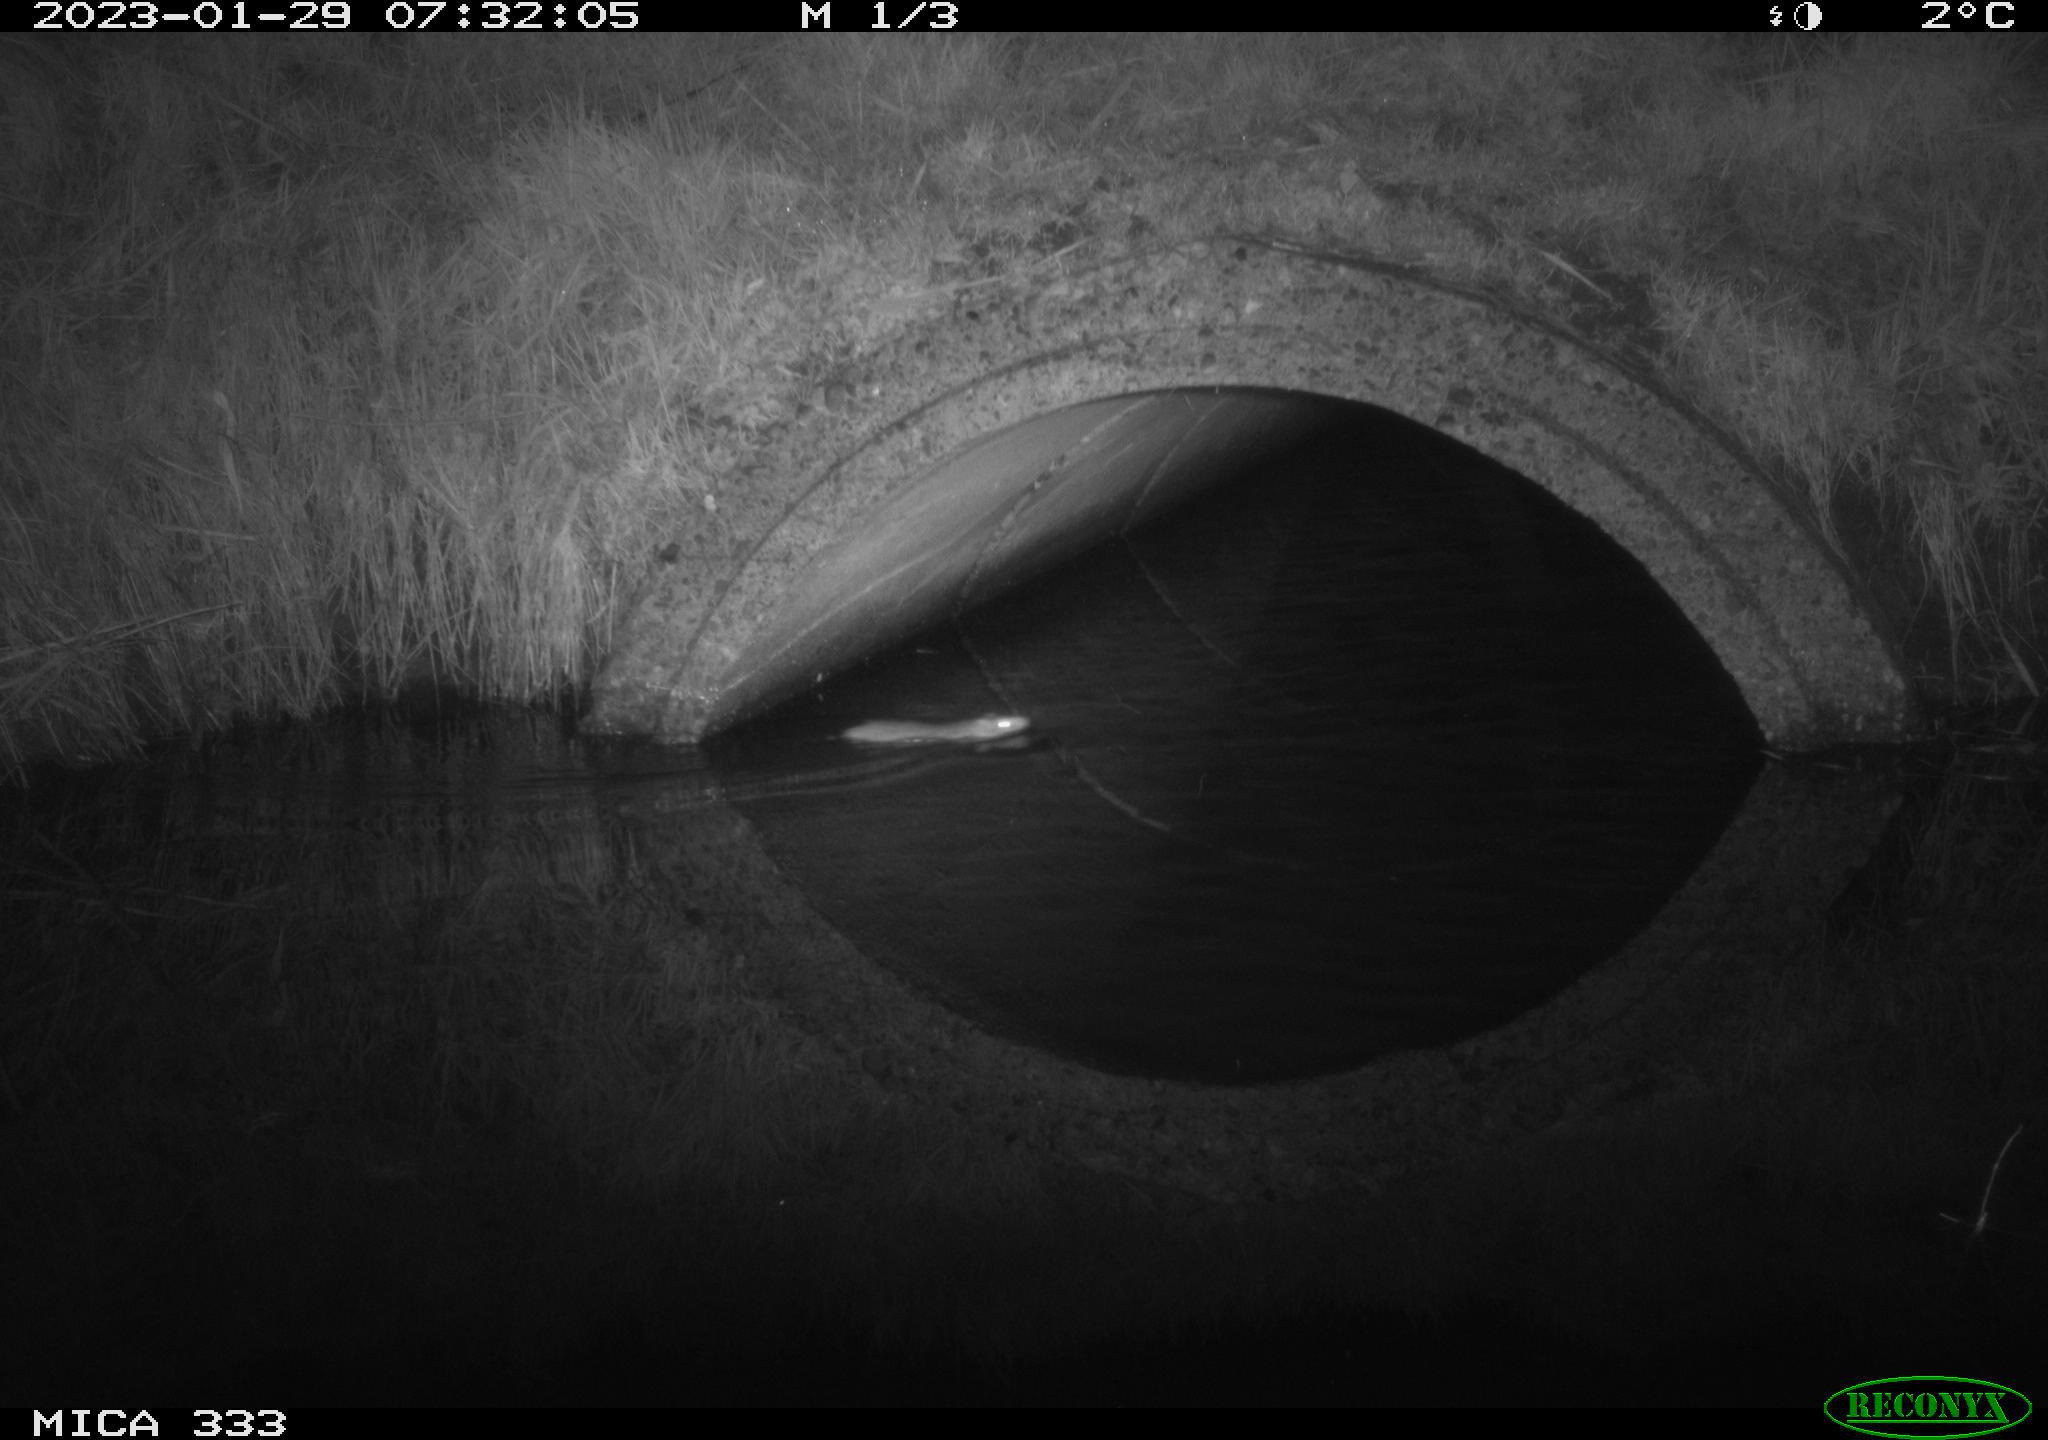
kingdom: Animalia
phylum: Chordata
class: Mammalia
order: Rodentia
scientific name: Rodentia
